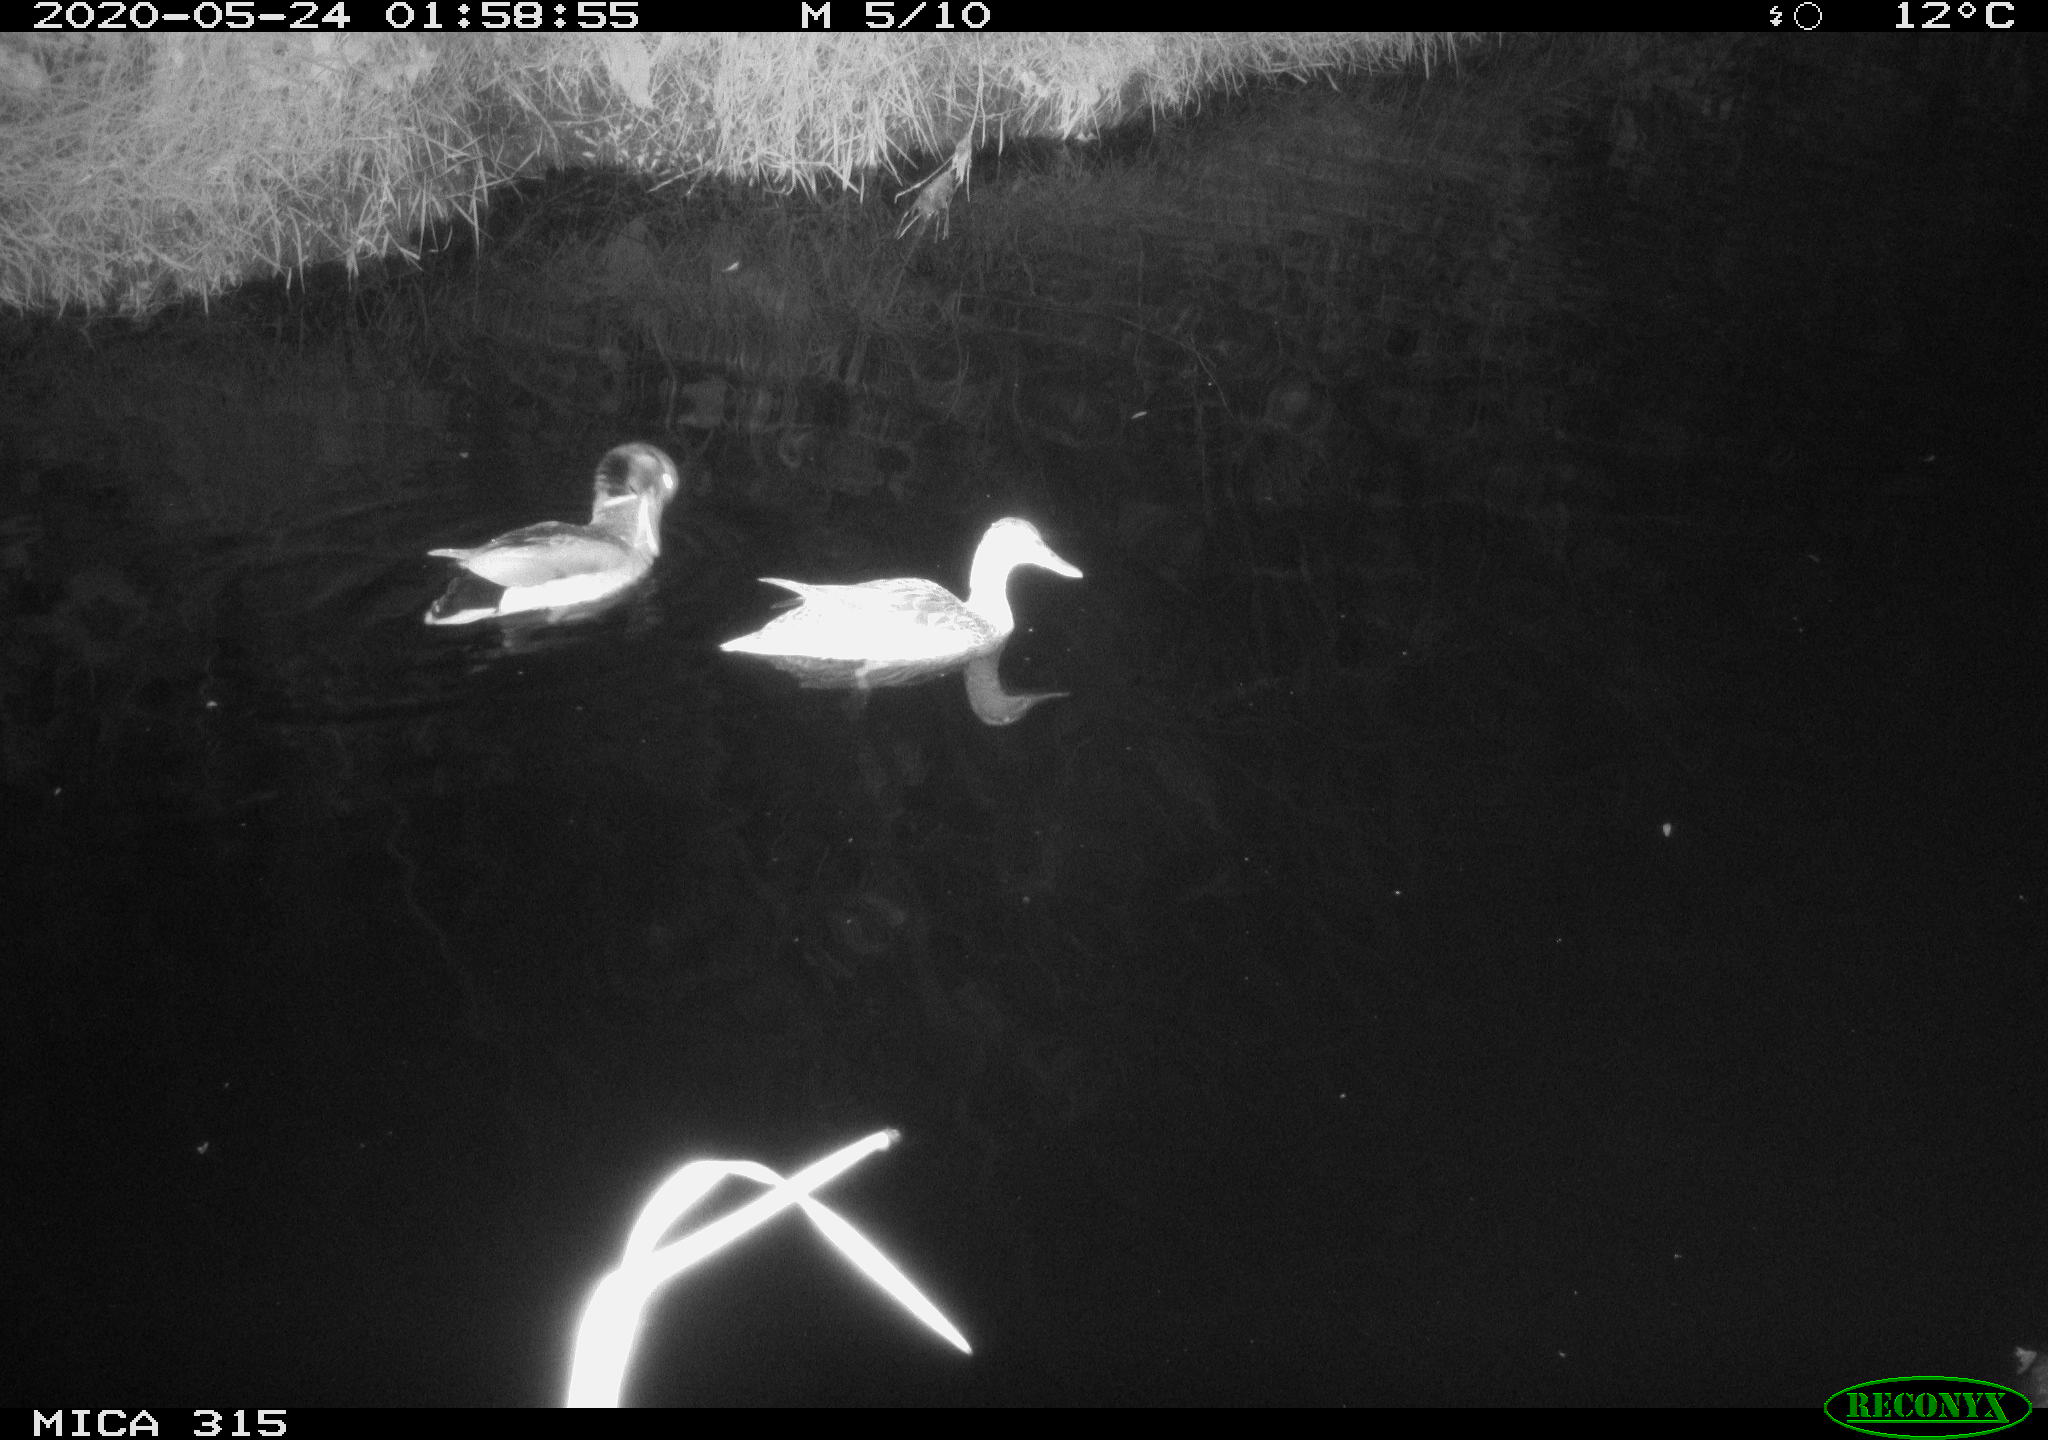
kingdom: Animalia
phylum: Chordata
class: Aves
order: Anseriformes
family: Anatidae
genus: Anas
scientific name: Anas platyrhynchos
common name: Mallard
